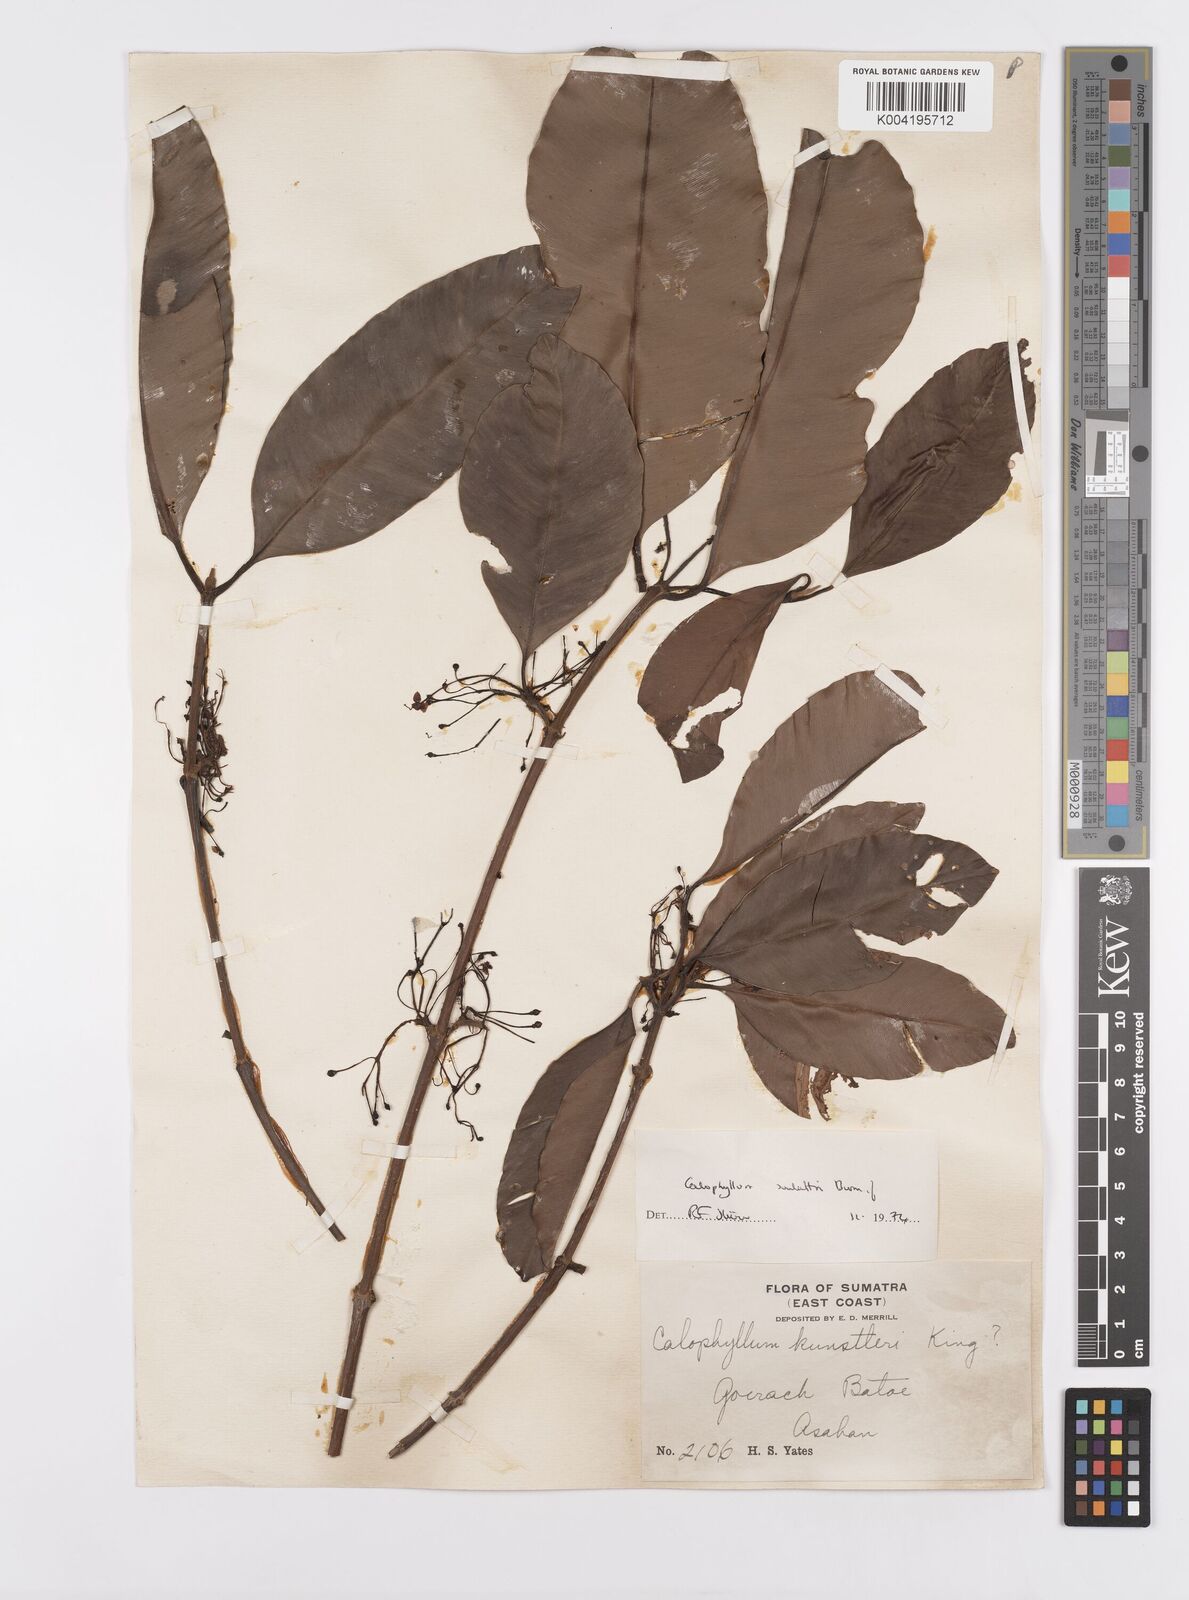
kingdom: Plantae
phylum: Tracheophyta
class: Magnoliopsida
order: Malpighiales
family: Calophyllaceae
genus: Calophyllum
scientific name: Calophyllum soulattri
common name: Bitangoor boonot
